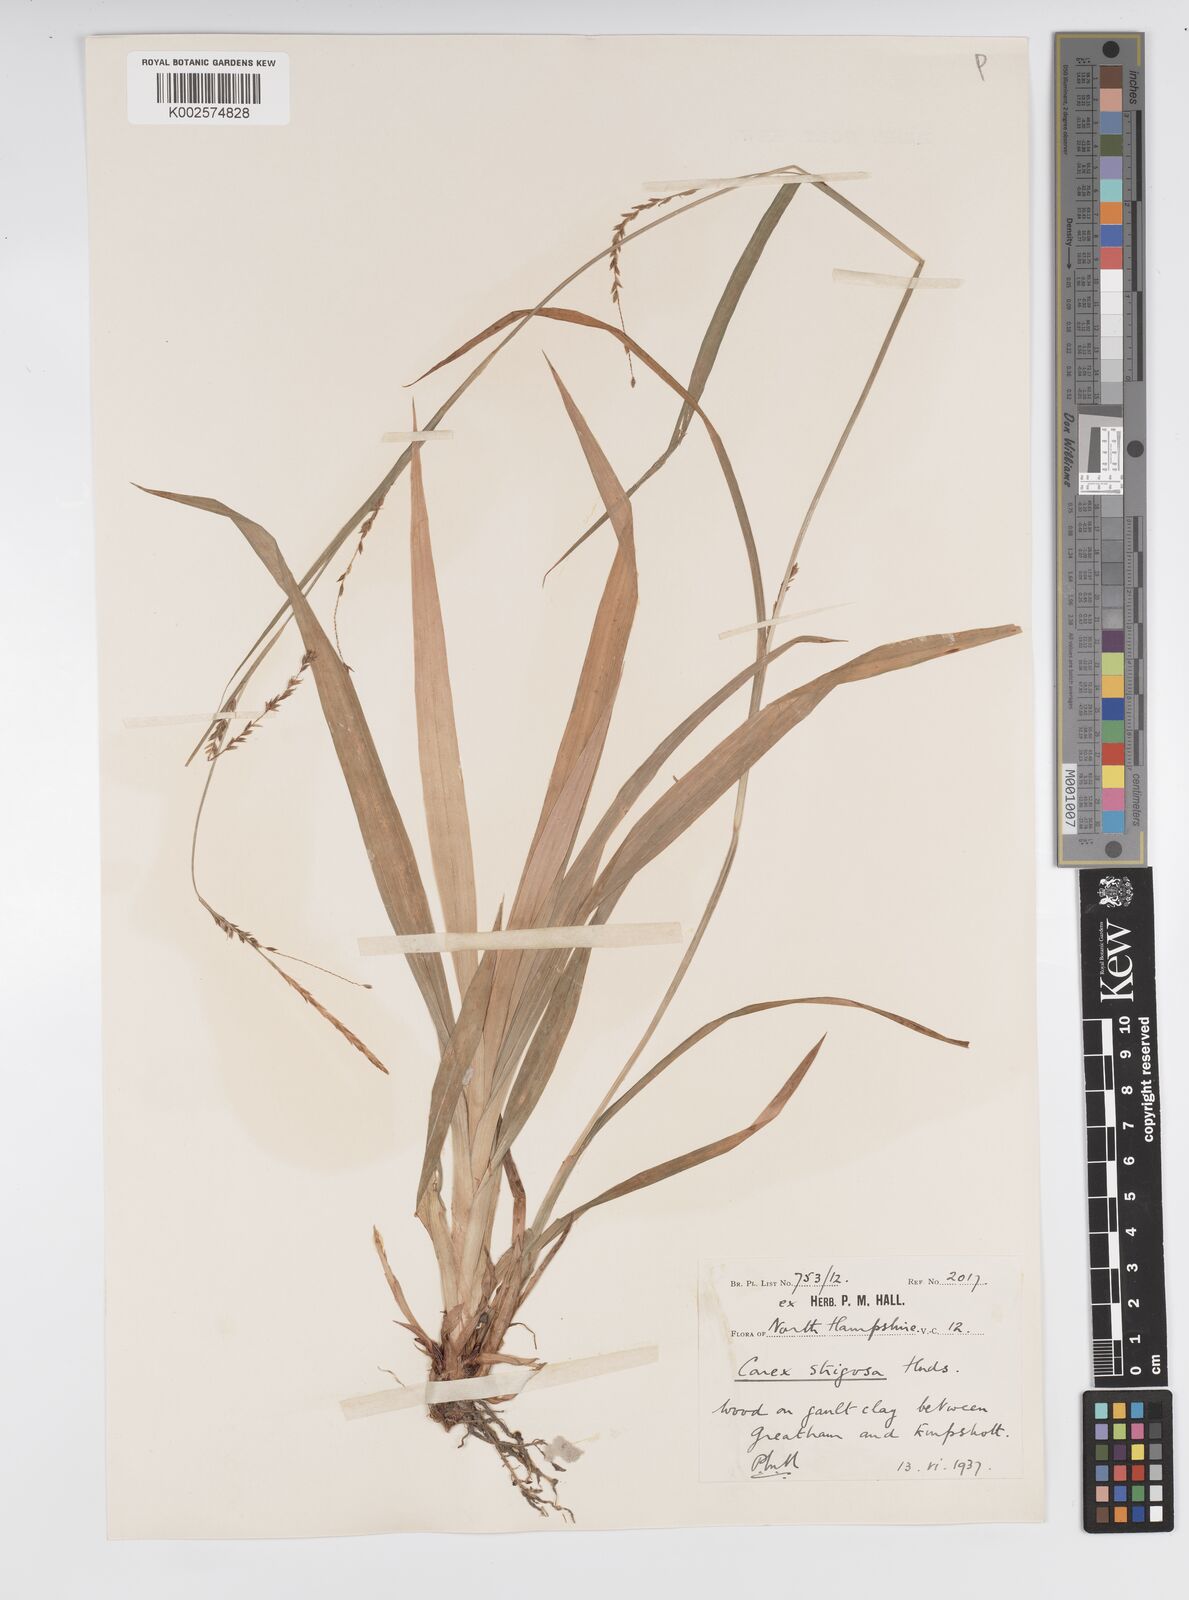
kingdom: Plantae
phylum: Tracheophyta
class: Liliopsida
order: Poales
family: Cyperaceae
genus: Carex
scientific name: Carex strigosa
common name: Thin-spiked wood-sedge
